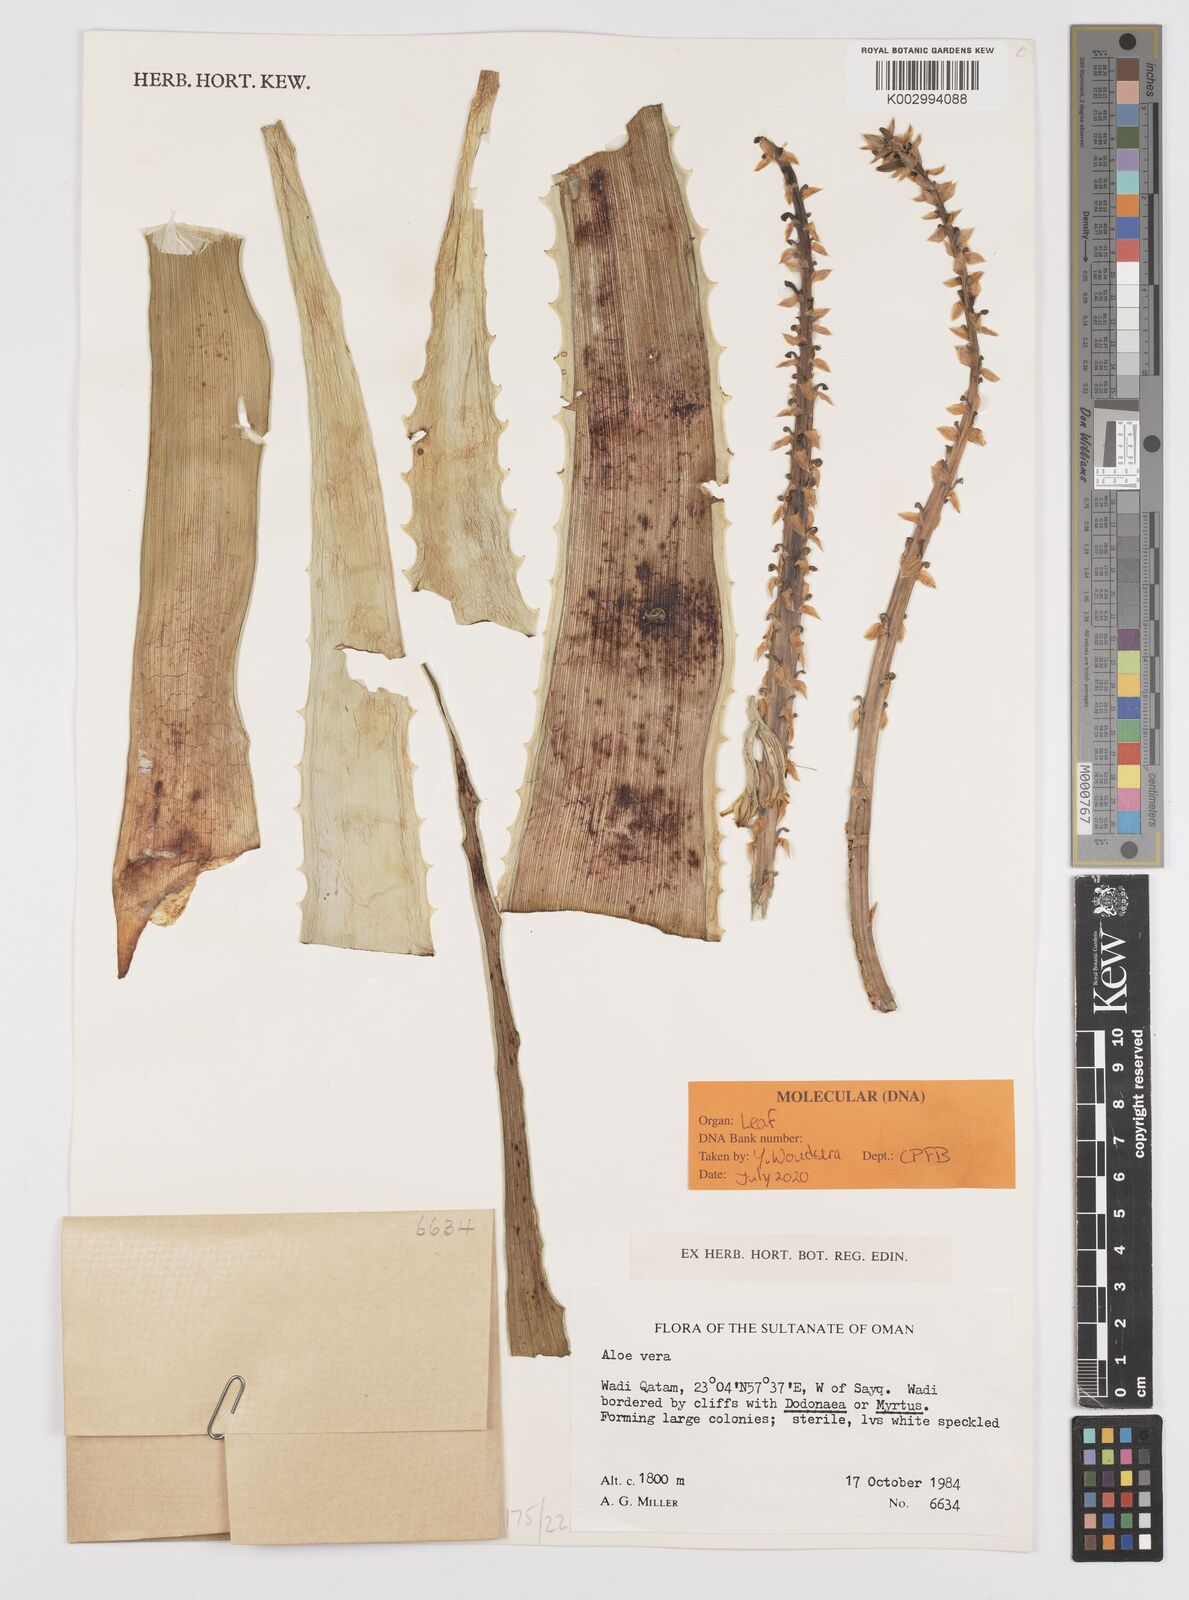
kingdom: Plantae
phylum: Tracheophyta
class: Liliopsida
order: Asparagales
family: Asphodelaceae
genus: Aloe
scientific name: Aloe vera
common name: Barbados aloe
